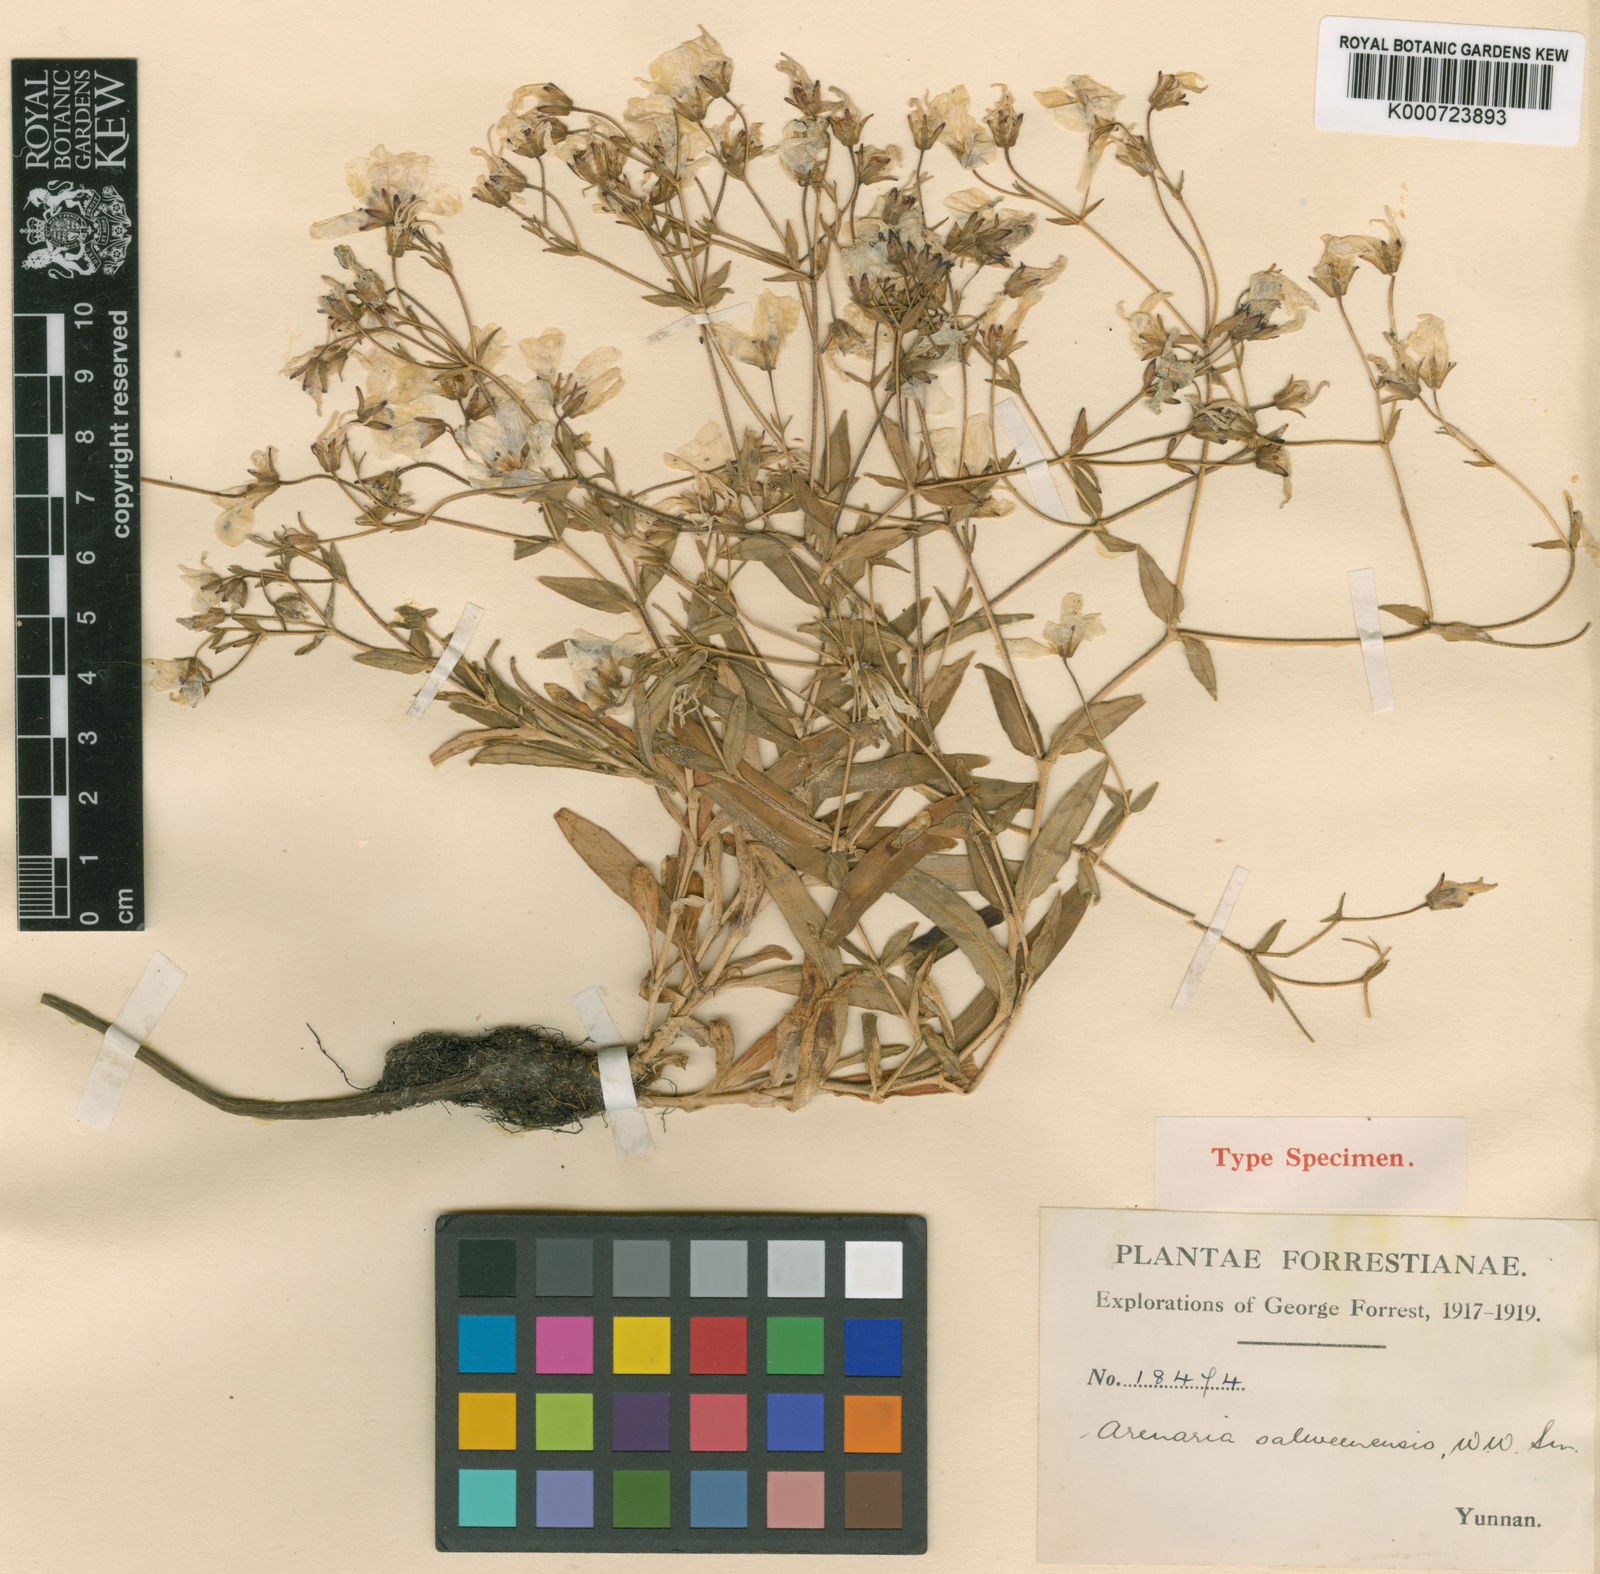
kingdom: Plantae
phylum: Tracheophyta
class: Magnoliopsida
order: Caryophyllales
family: Caryophyllaceae
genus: Odontostemma
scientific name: Odontostemma salweenense
